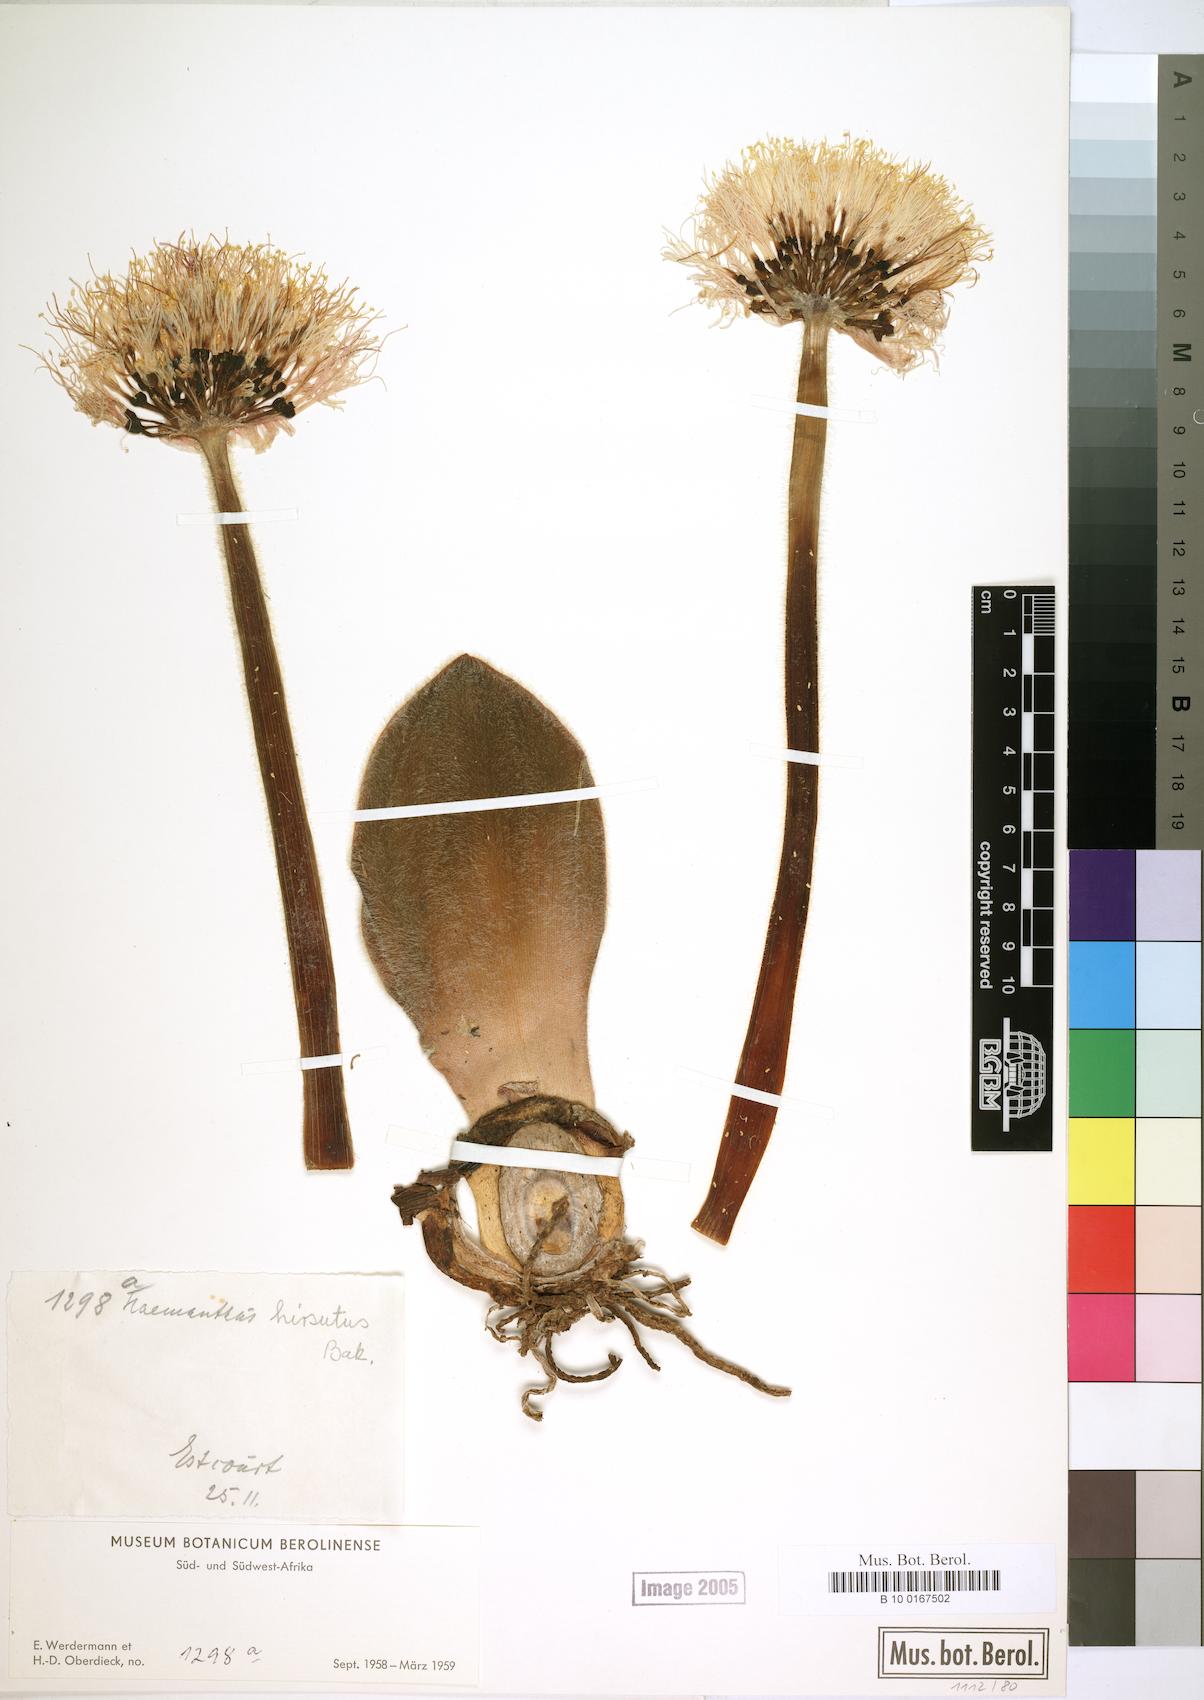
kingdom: Plantae
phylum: Tracheophyta
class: Liliopsida
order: Asparagales
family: Amaryllidaceae
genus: Haemanthus
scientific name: Haemanthus humilis
